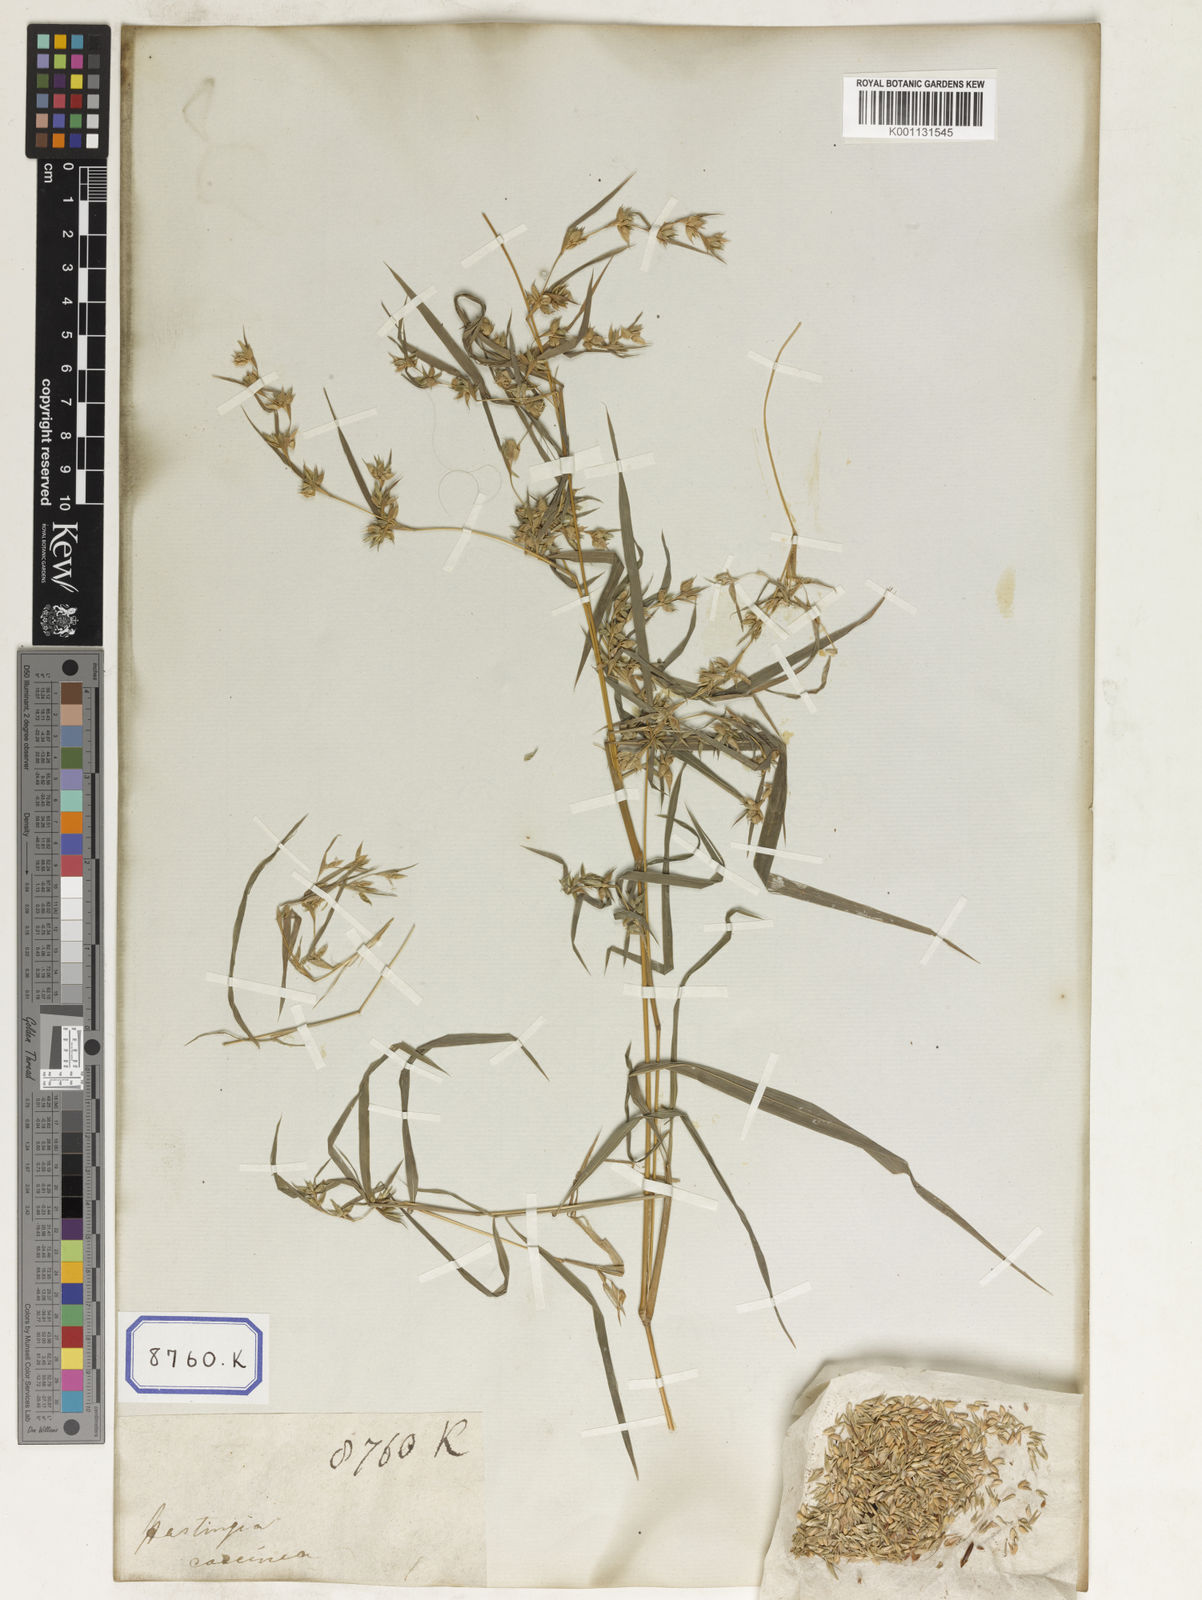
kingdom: Plantae
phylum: Tracheophyta
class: Liliopsida
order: Poales
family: Poaceae
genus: Apluda
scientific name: Apluda
